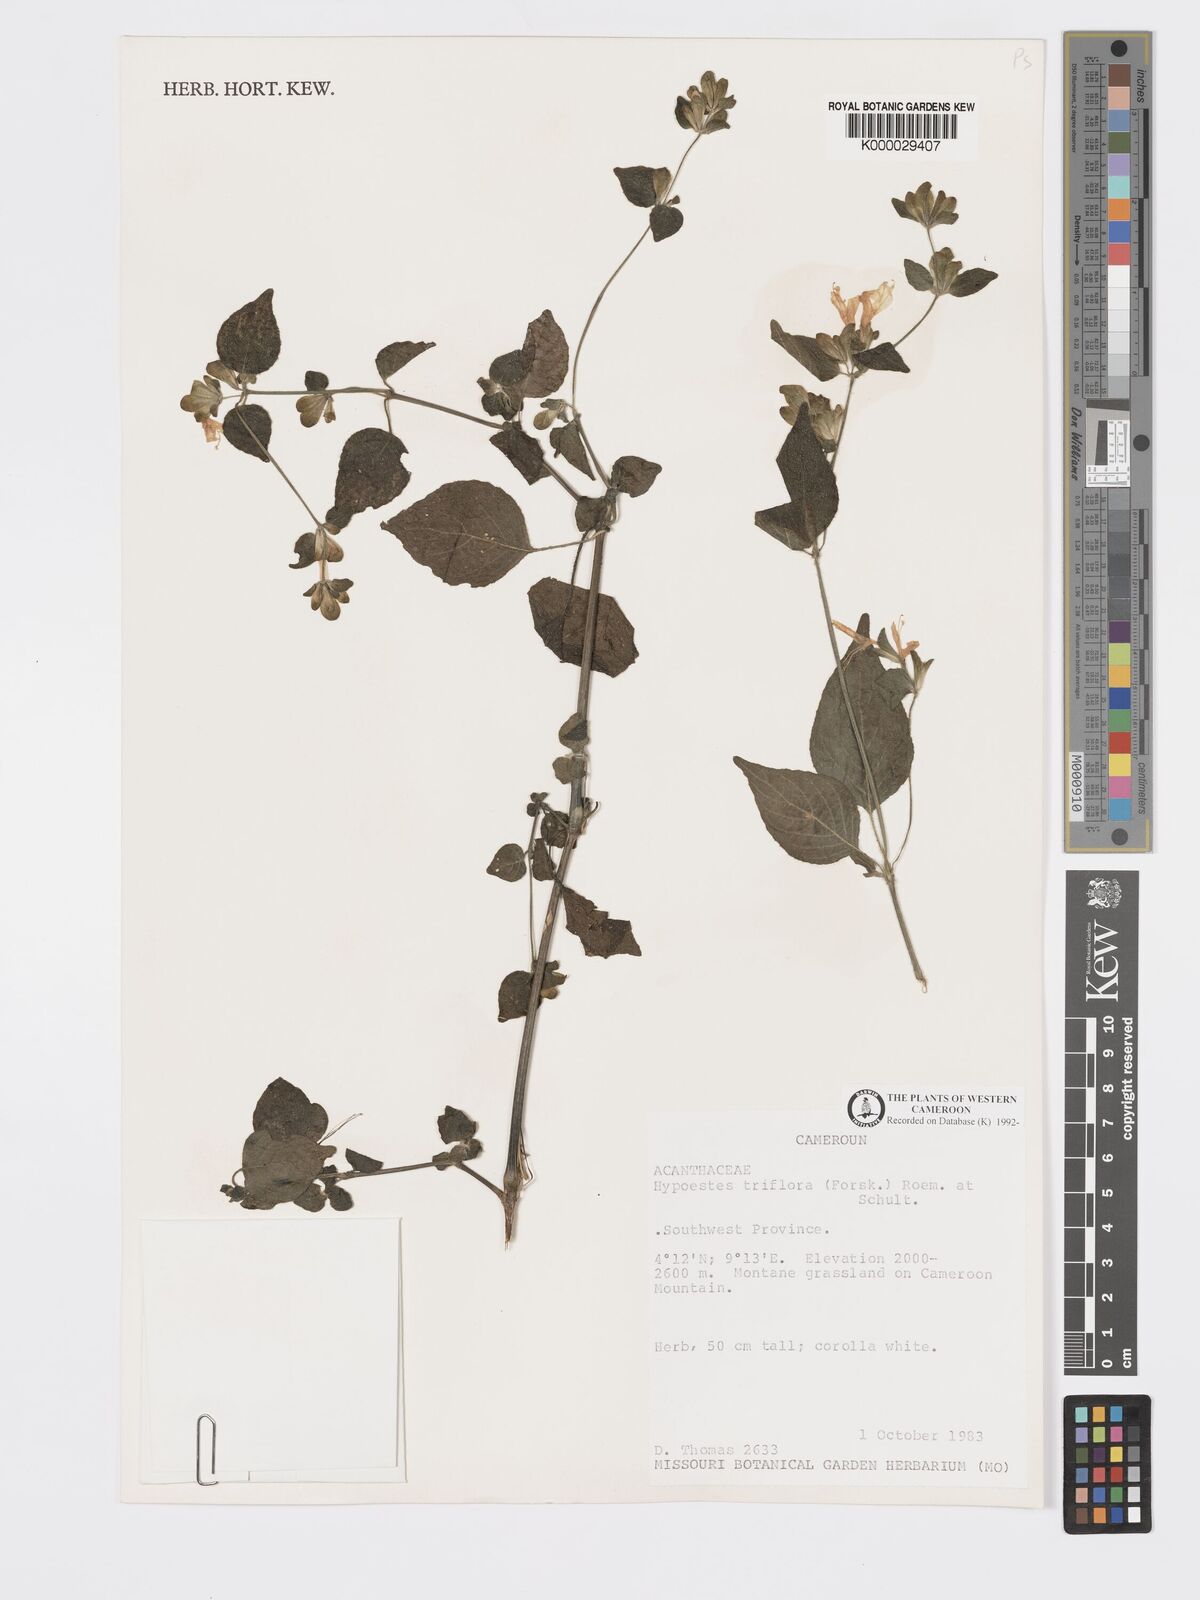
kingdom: Plantae
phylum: Tracheophyta
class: Magnoliopsida
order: Lamiales
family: Acanthaceae
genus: Hypoestes
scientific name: Hypoestes triflora
